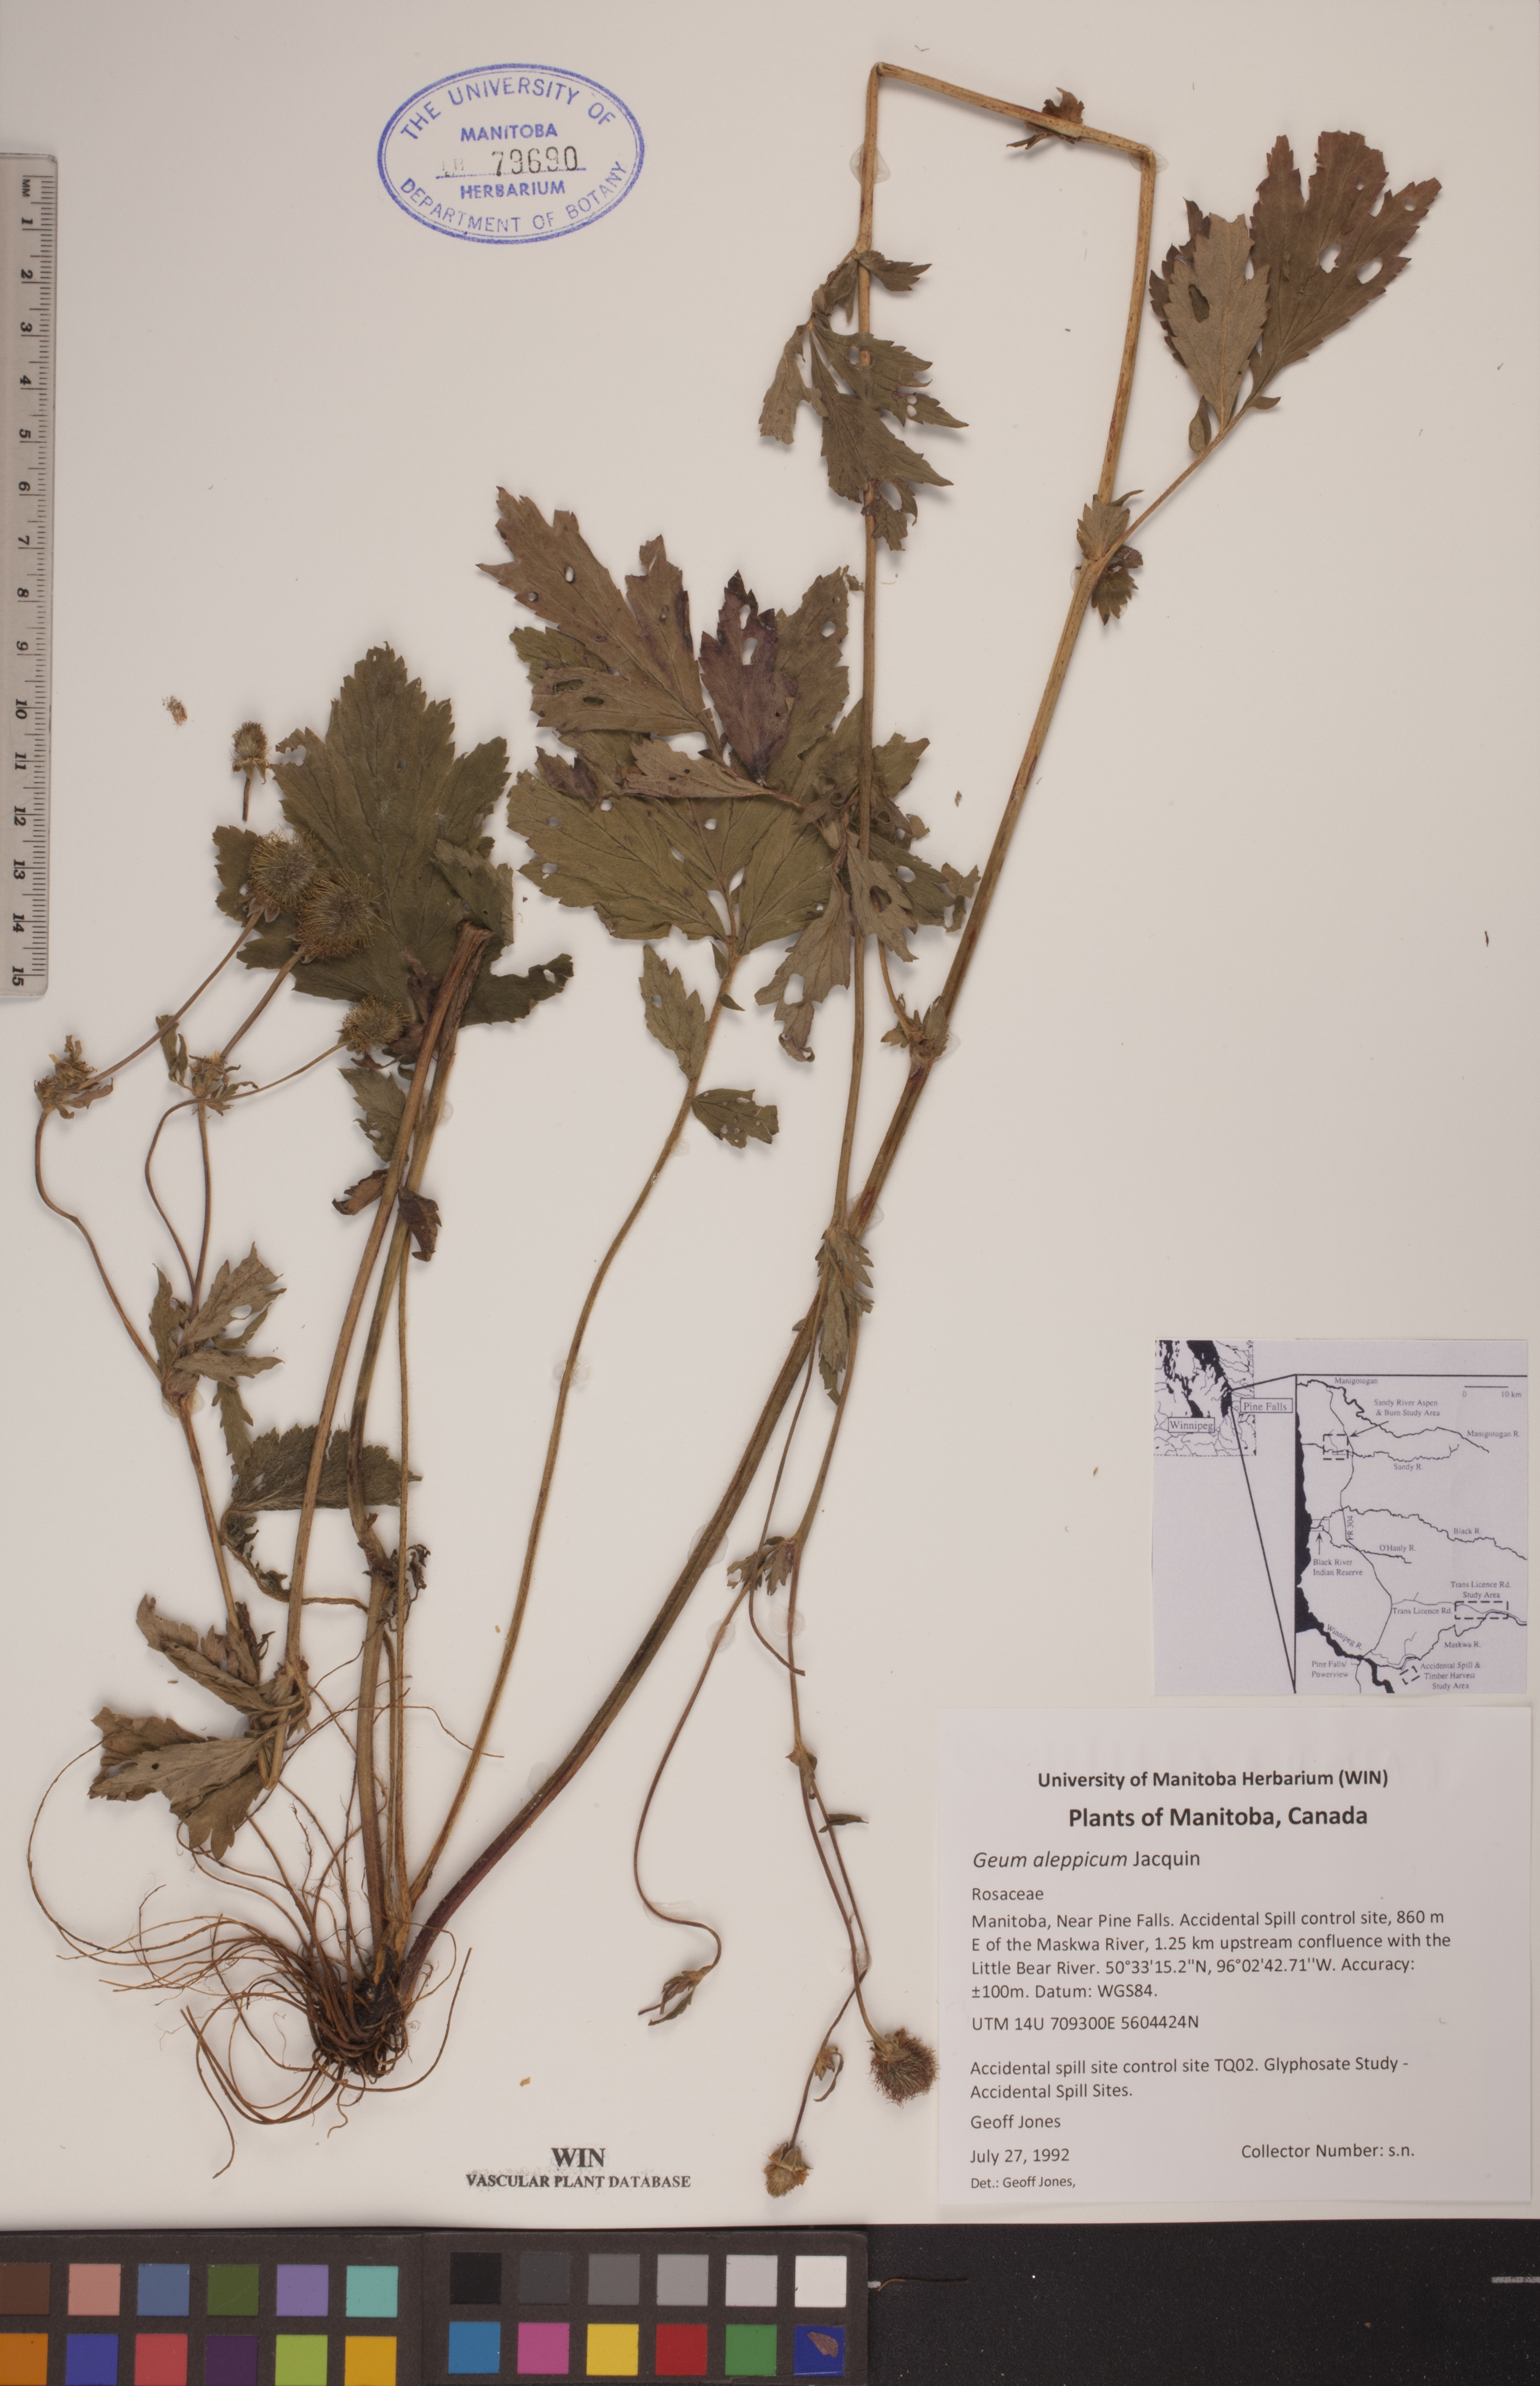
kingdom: Plantae
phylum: Tracheophyta
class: Magnoliopsida
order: Rosales
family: Rosaceae
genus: Geum
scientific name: Geum aleppicum
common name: Yellow avens
